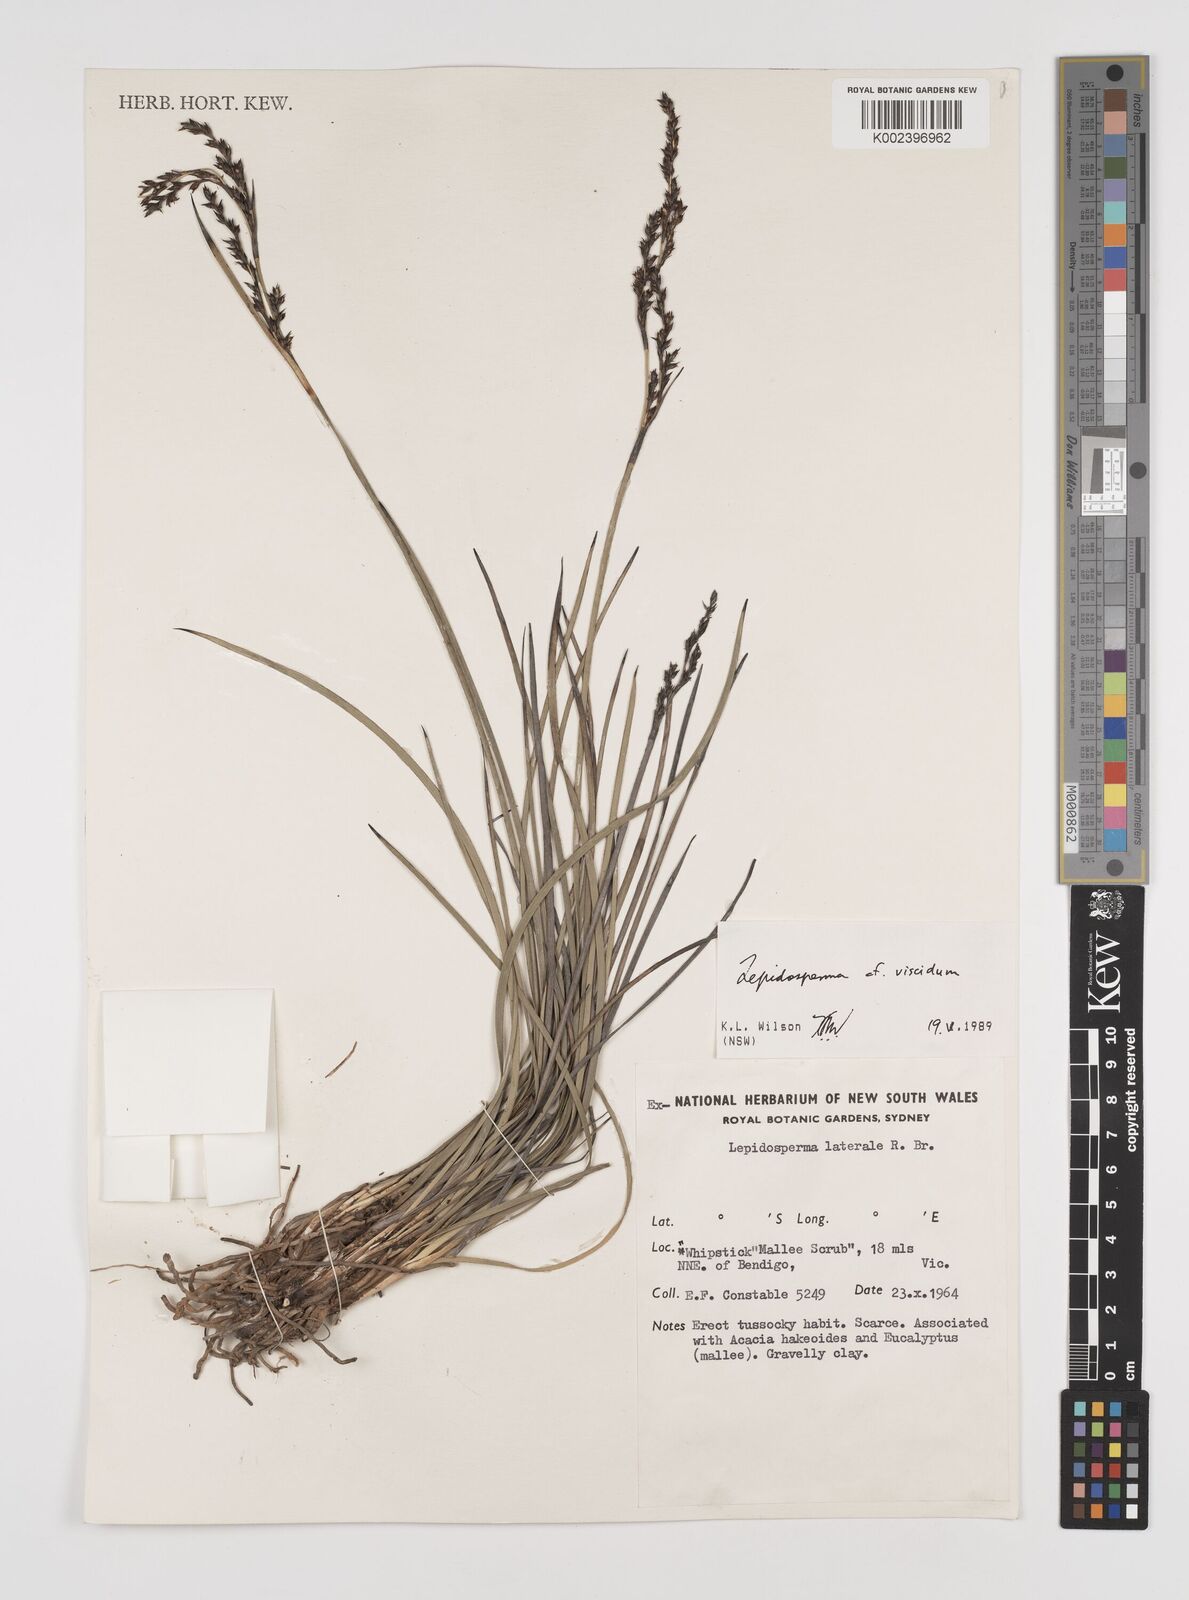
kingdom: Plantae
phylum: Tracheophyta
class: Liliopsida
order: Poales
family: Cyperaceae
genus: Lepidosperma
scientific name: Lepidosperma viscidum
